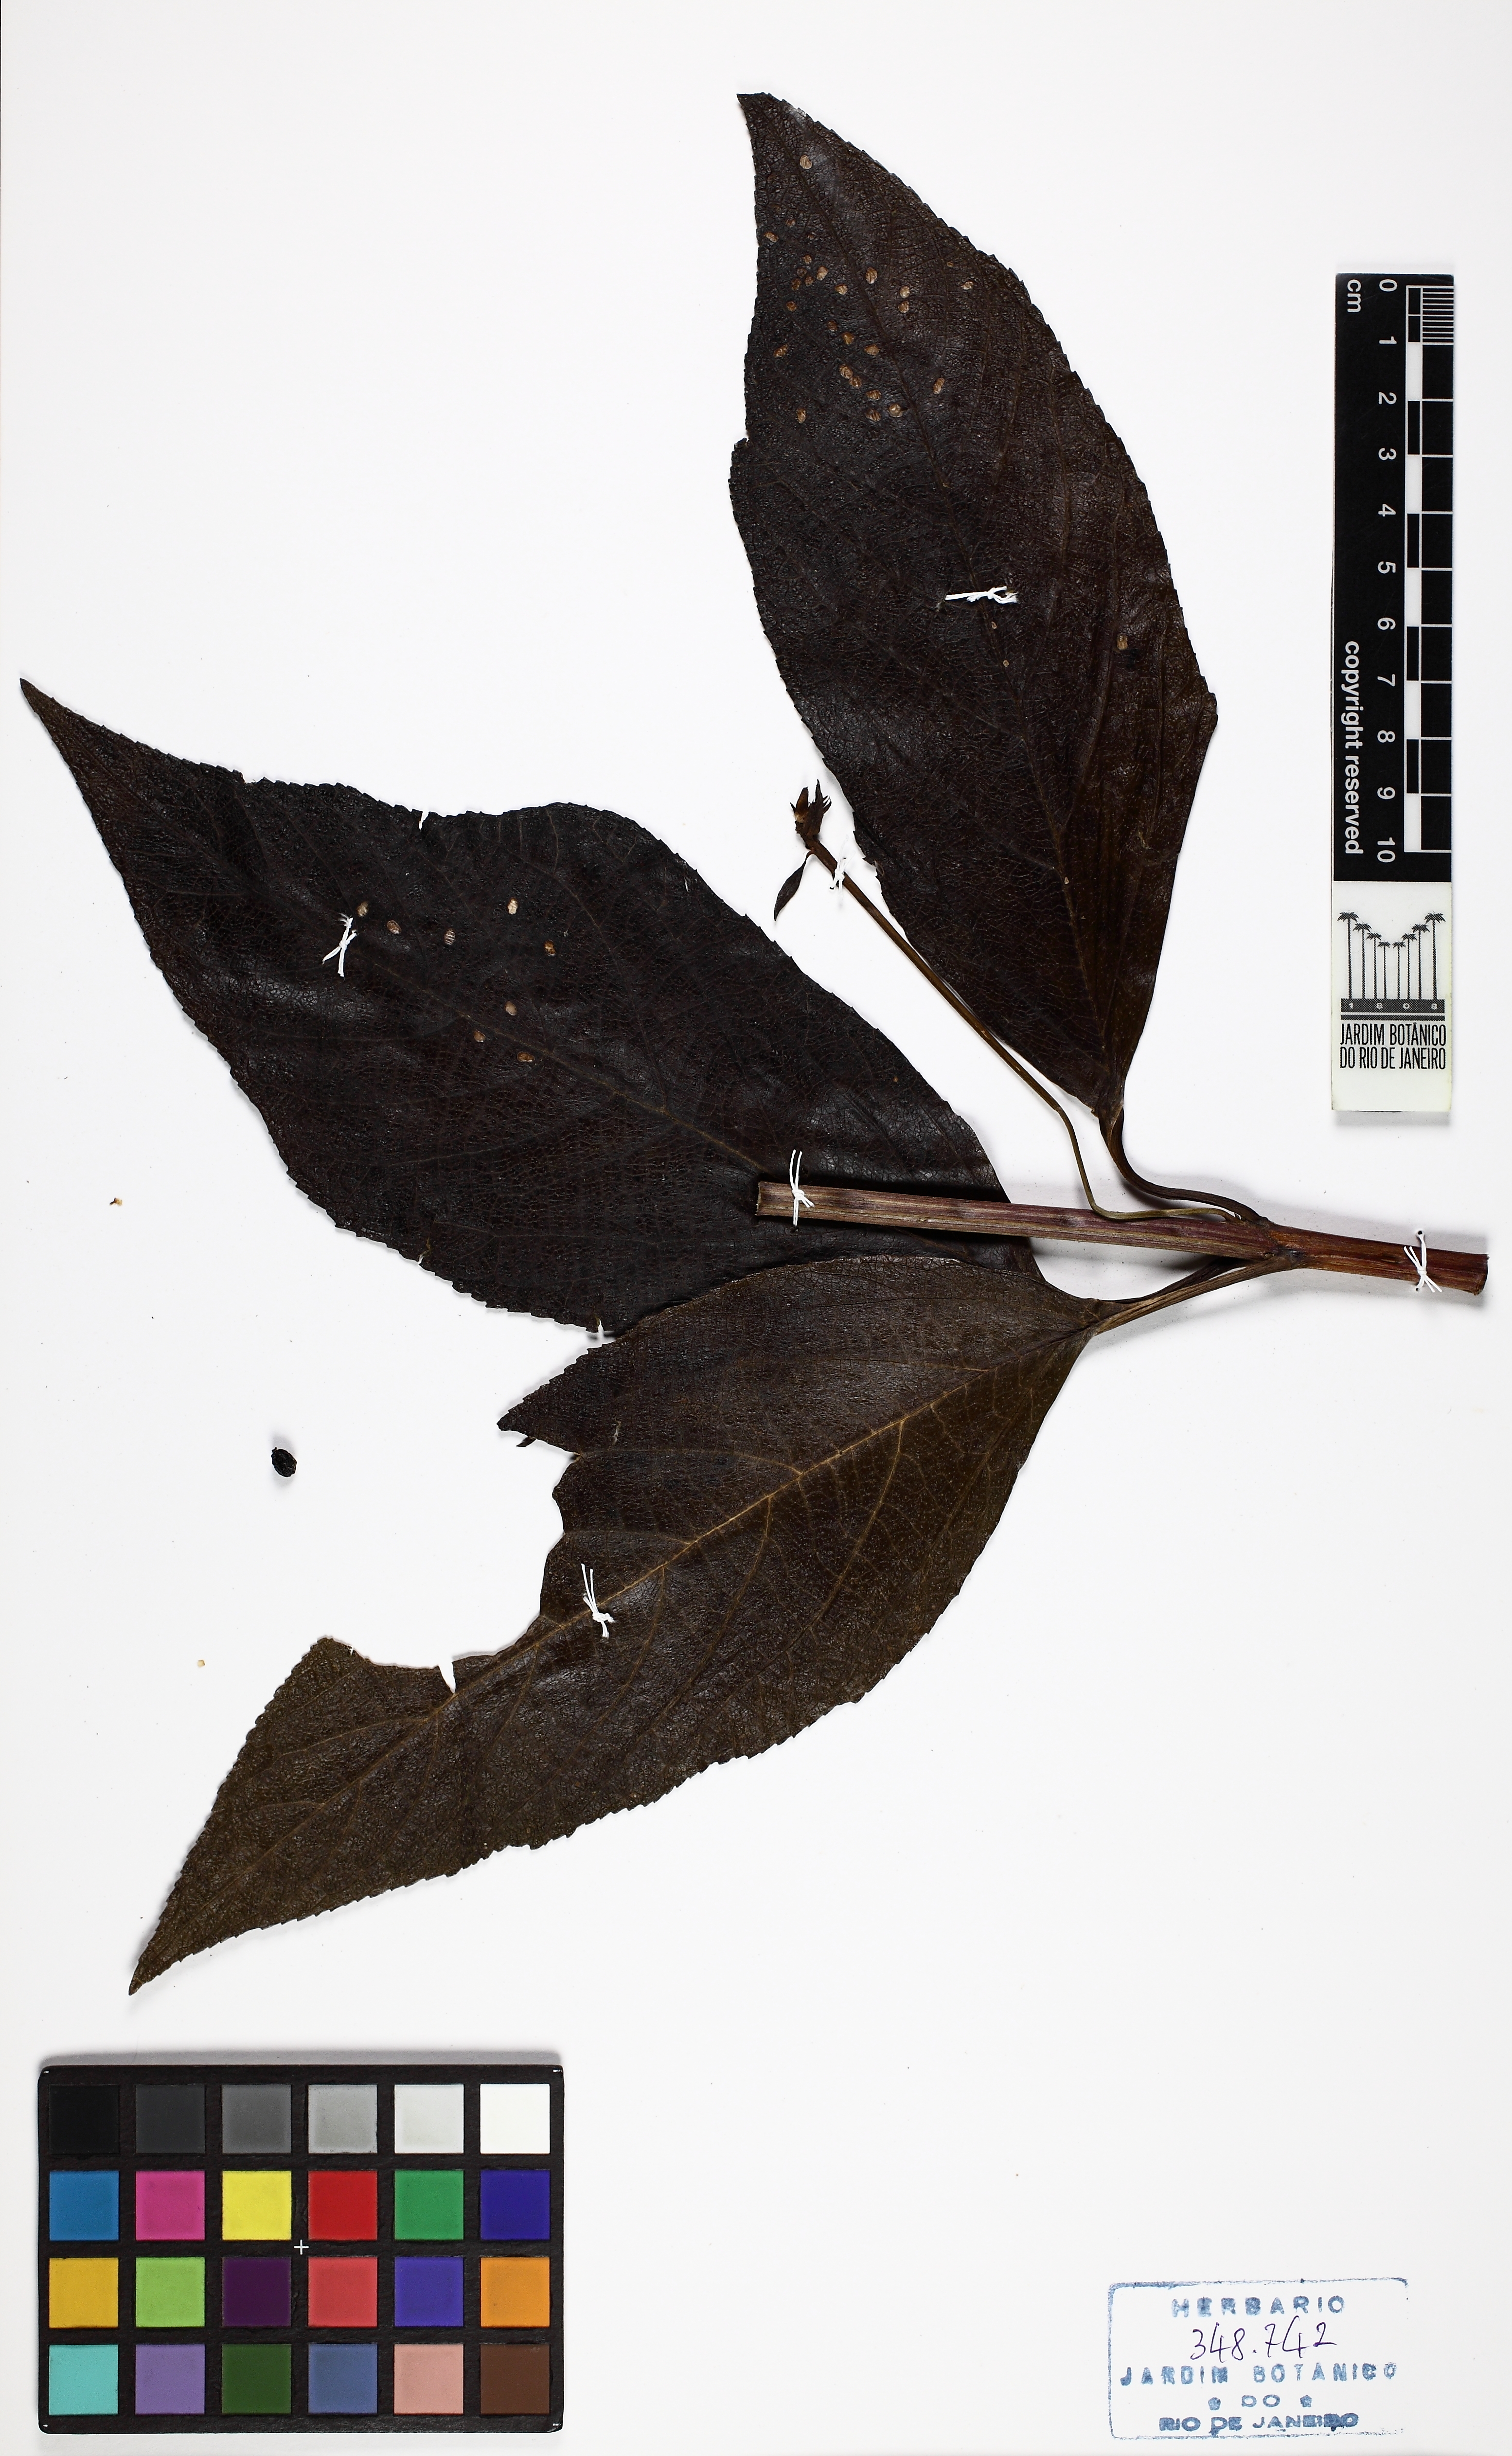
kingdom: Plantae
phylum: Tracheophyta
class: Magnoliopsida
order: Lamiales
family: Verbenaceae
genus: Lantana
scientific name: Lantana
